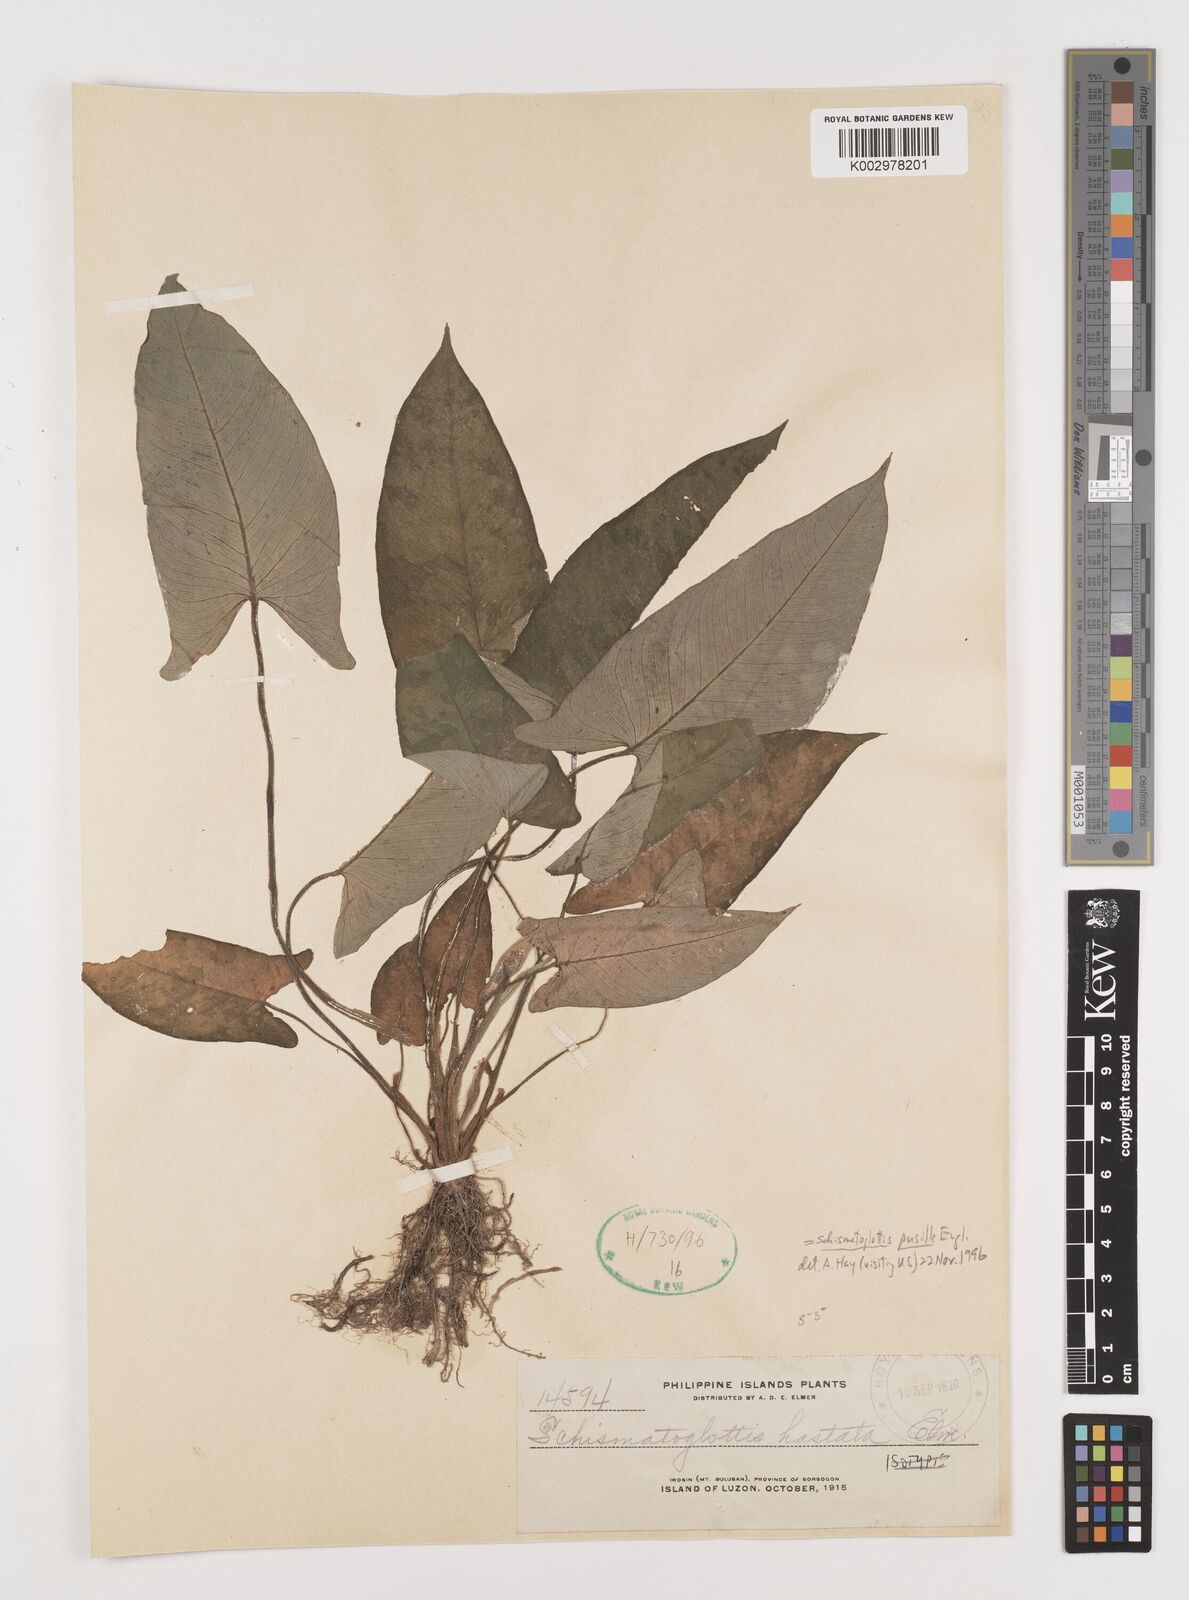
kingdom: Plantae
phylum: Tracheophyta
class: Liliopsida
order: Alismatales
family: Araceae
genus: Schismatoglottis
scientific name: Schismatoglottis pusilla
